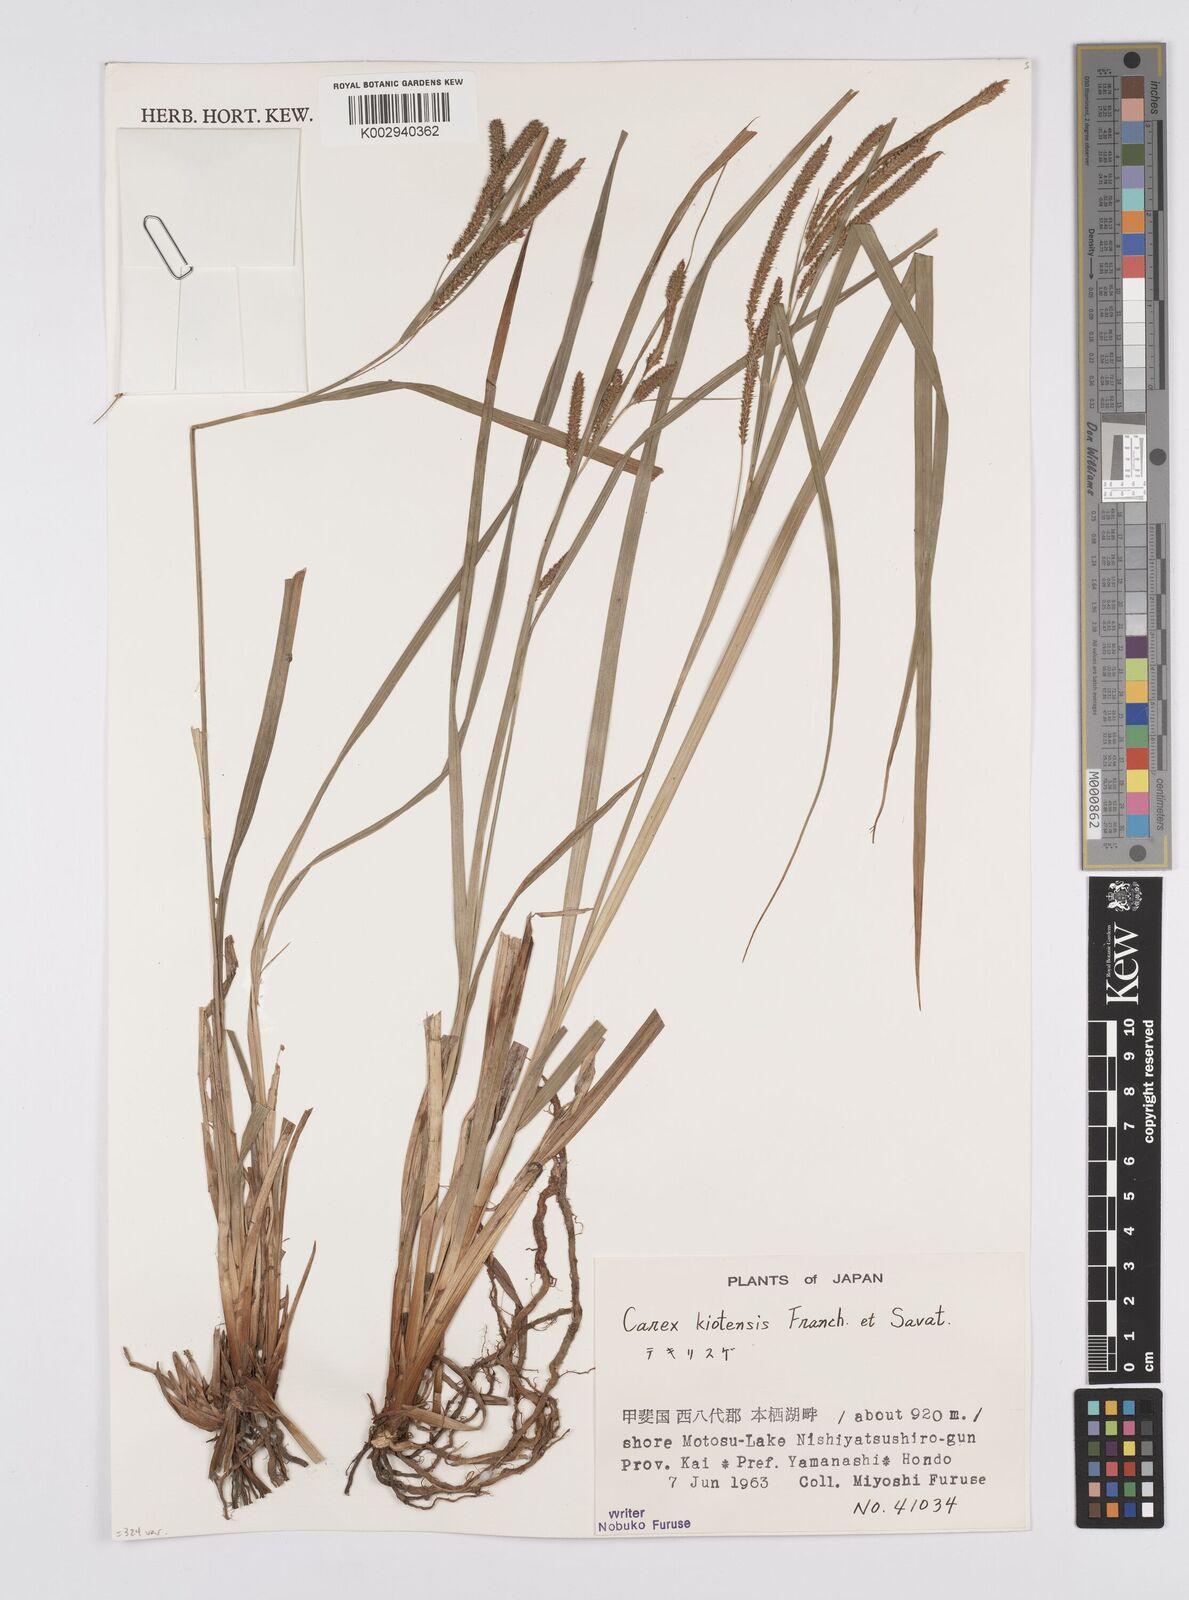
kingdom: Plantae
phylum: Tracheophyta
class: Liliopsida
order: Poales
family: Cyperaceae
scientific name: Cyperaceae
